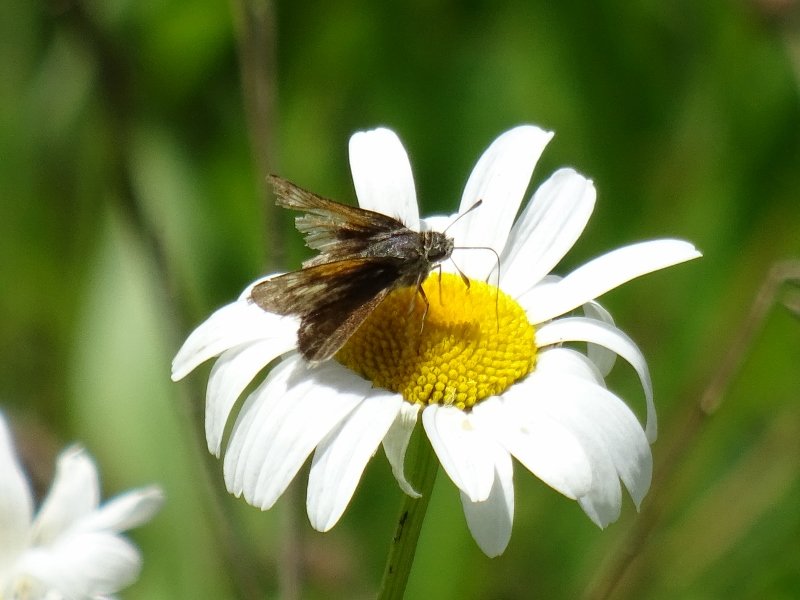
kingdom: Animalia
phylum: Arthropoda
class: Insecta
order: Lepidoptera
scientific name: Lepidoptera
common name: Butterflies
